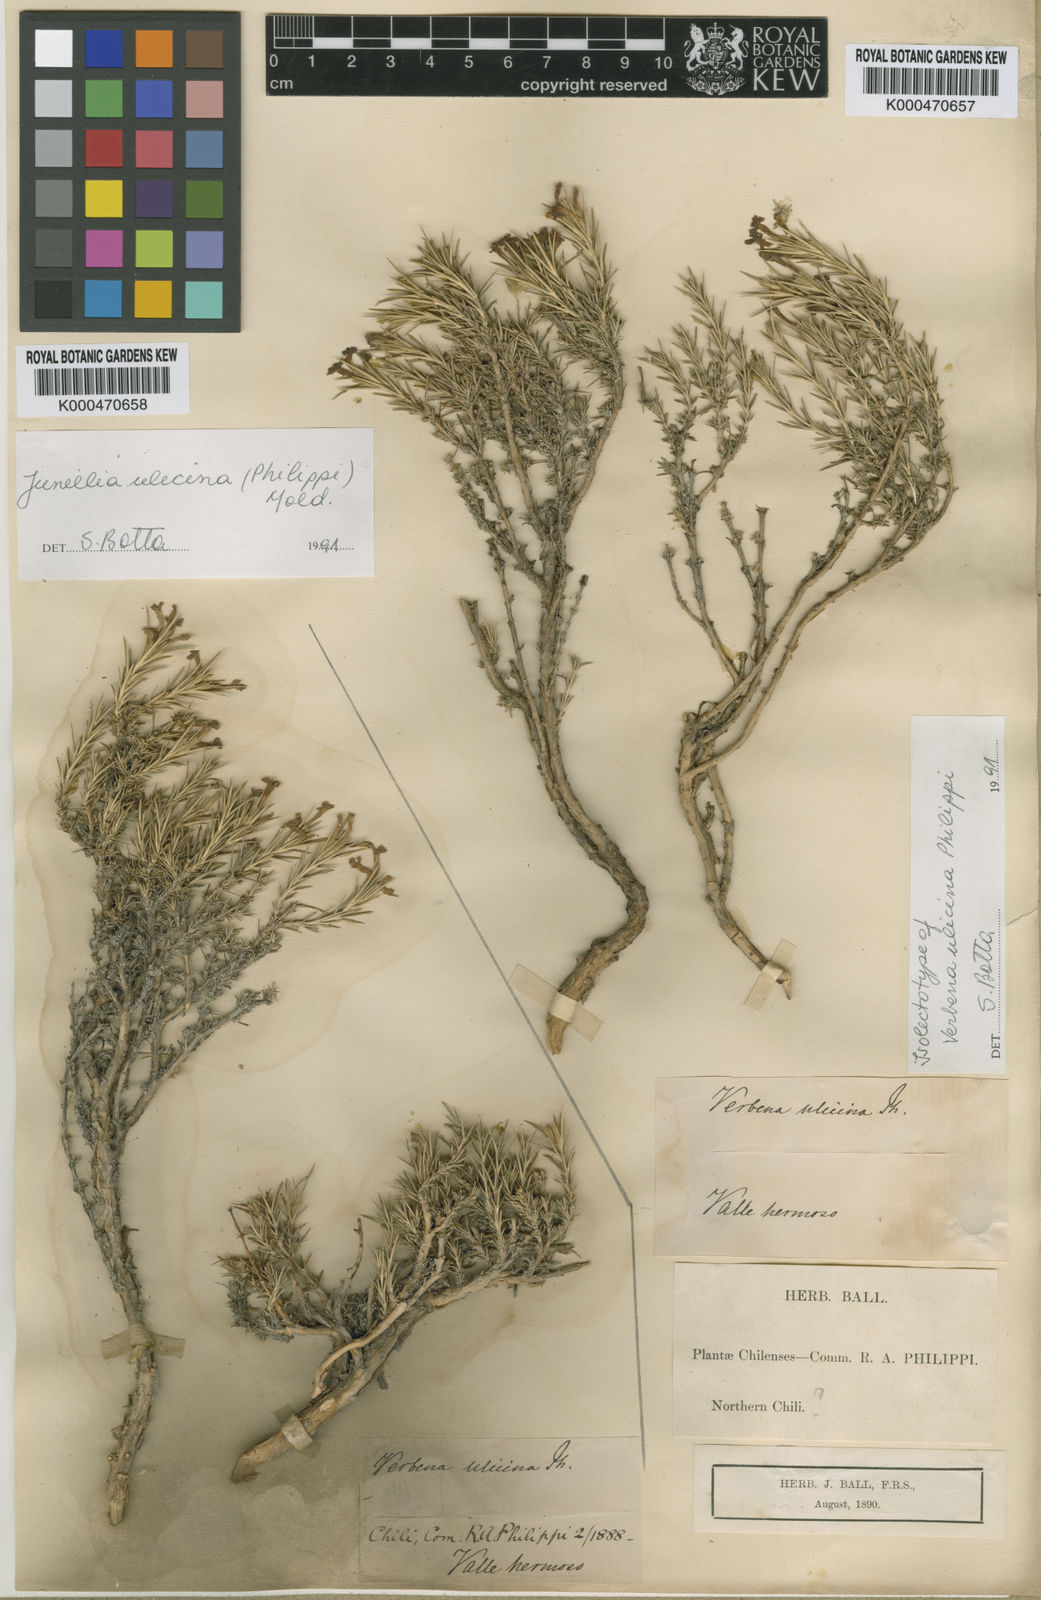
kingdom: Plantae
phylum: Tracheophyta
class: Magnoliopsida
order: Lamiales
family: Verbenaceae
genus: Junellia
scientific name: Junellia ulicina
